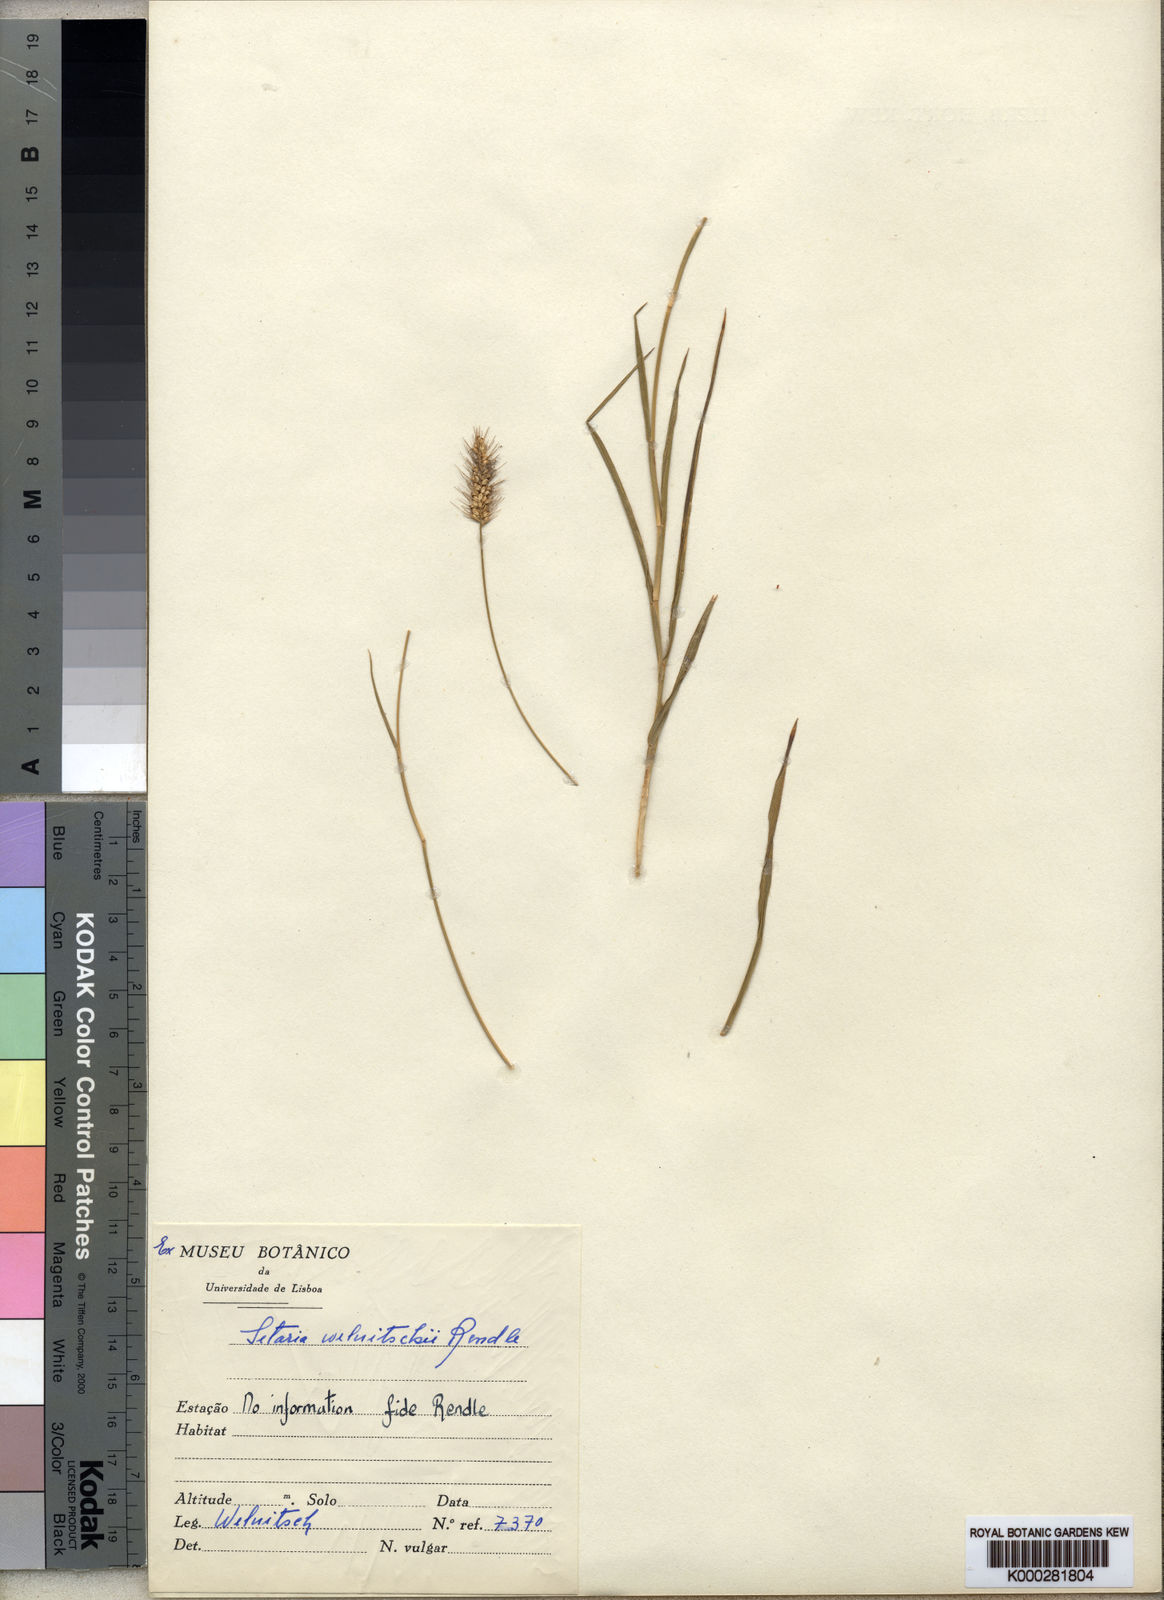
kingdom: Plantae
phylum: Tracheophyta
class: Liliopsida
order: Poales
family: Poaceae
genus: Setaria
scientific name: Setaria welwitschii
